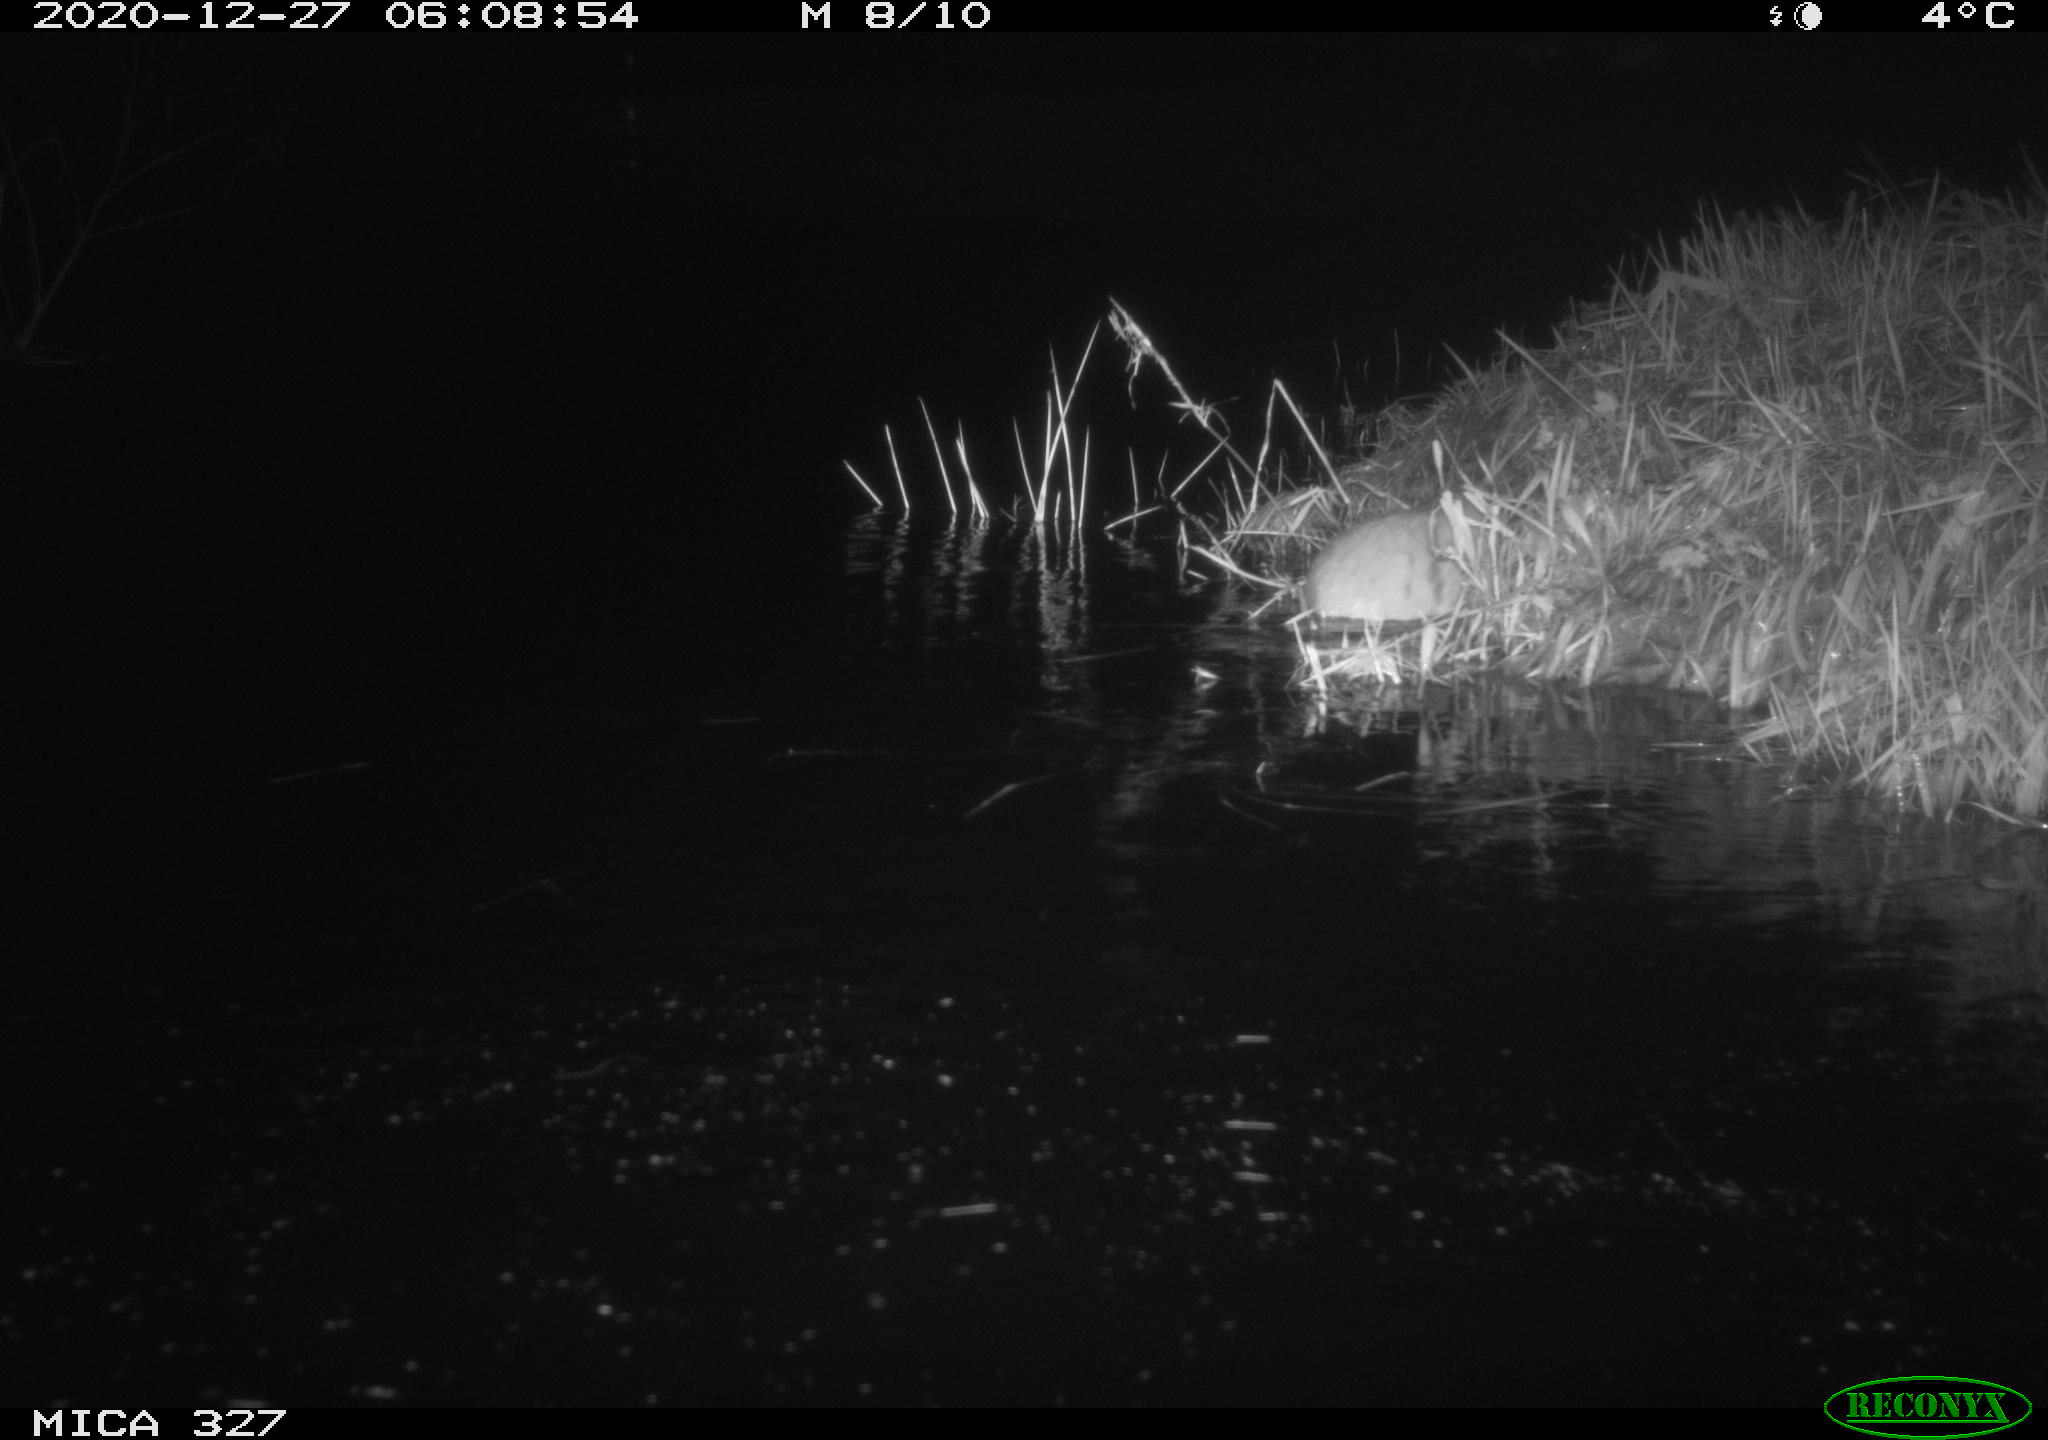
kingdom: Animalia
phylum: Chordata
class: Mammalia
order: Rodentia
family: Cricetidae
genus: Ondatra
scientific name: Ondatra zibethicus
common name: Muskrat
